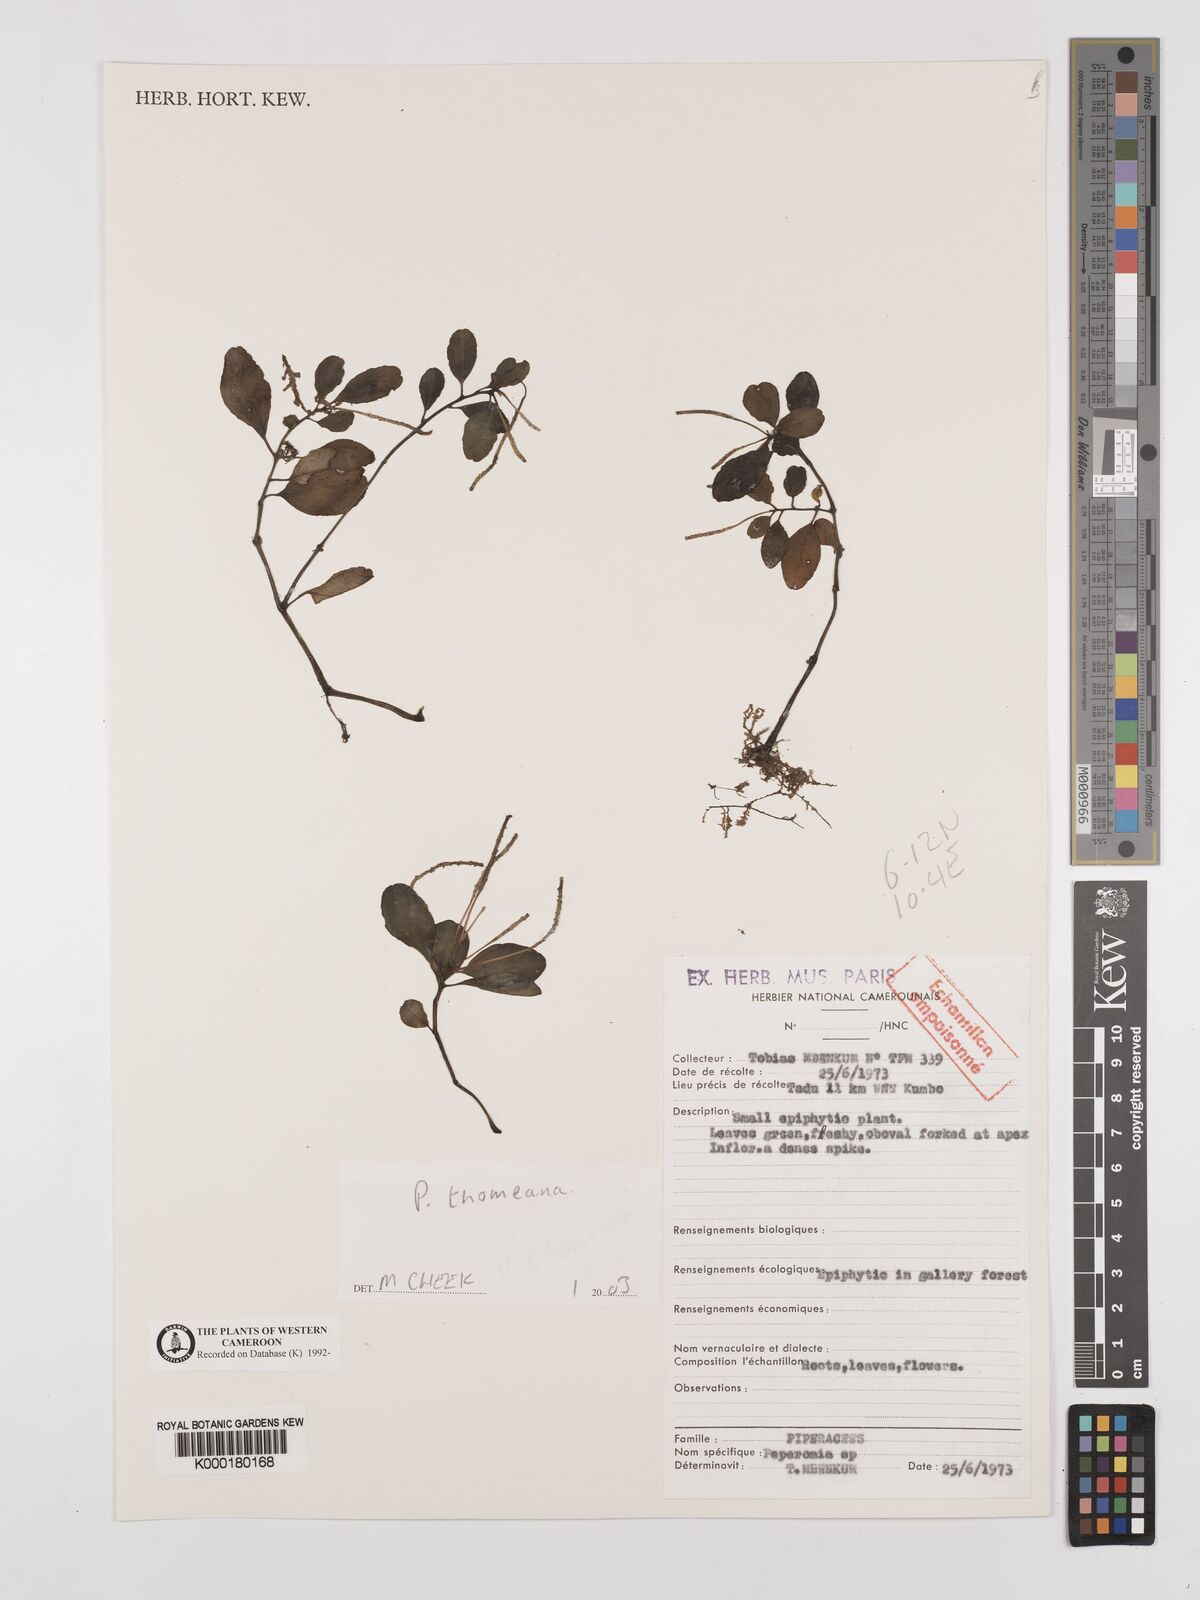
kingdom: Plantae
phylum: Tracheophyta
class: Magnoliopsida
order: Piperales
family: Piperaceae
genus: Peperomia
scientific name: Peperomia thomeana
